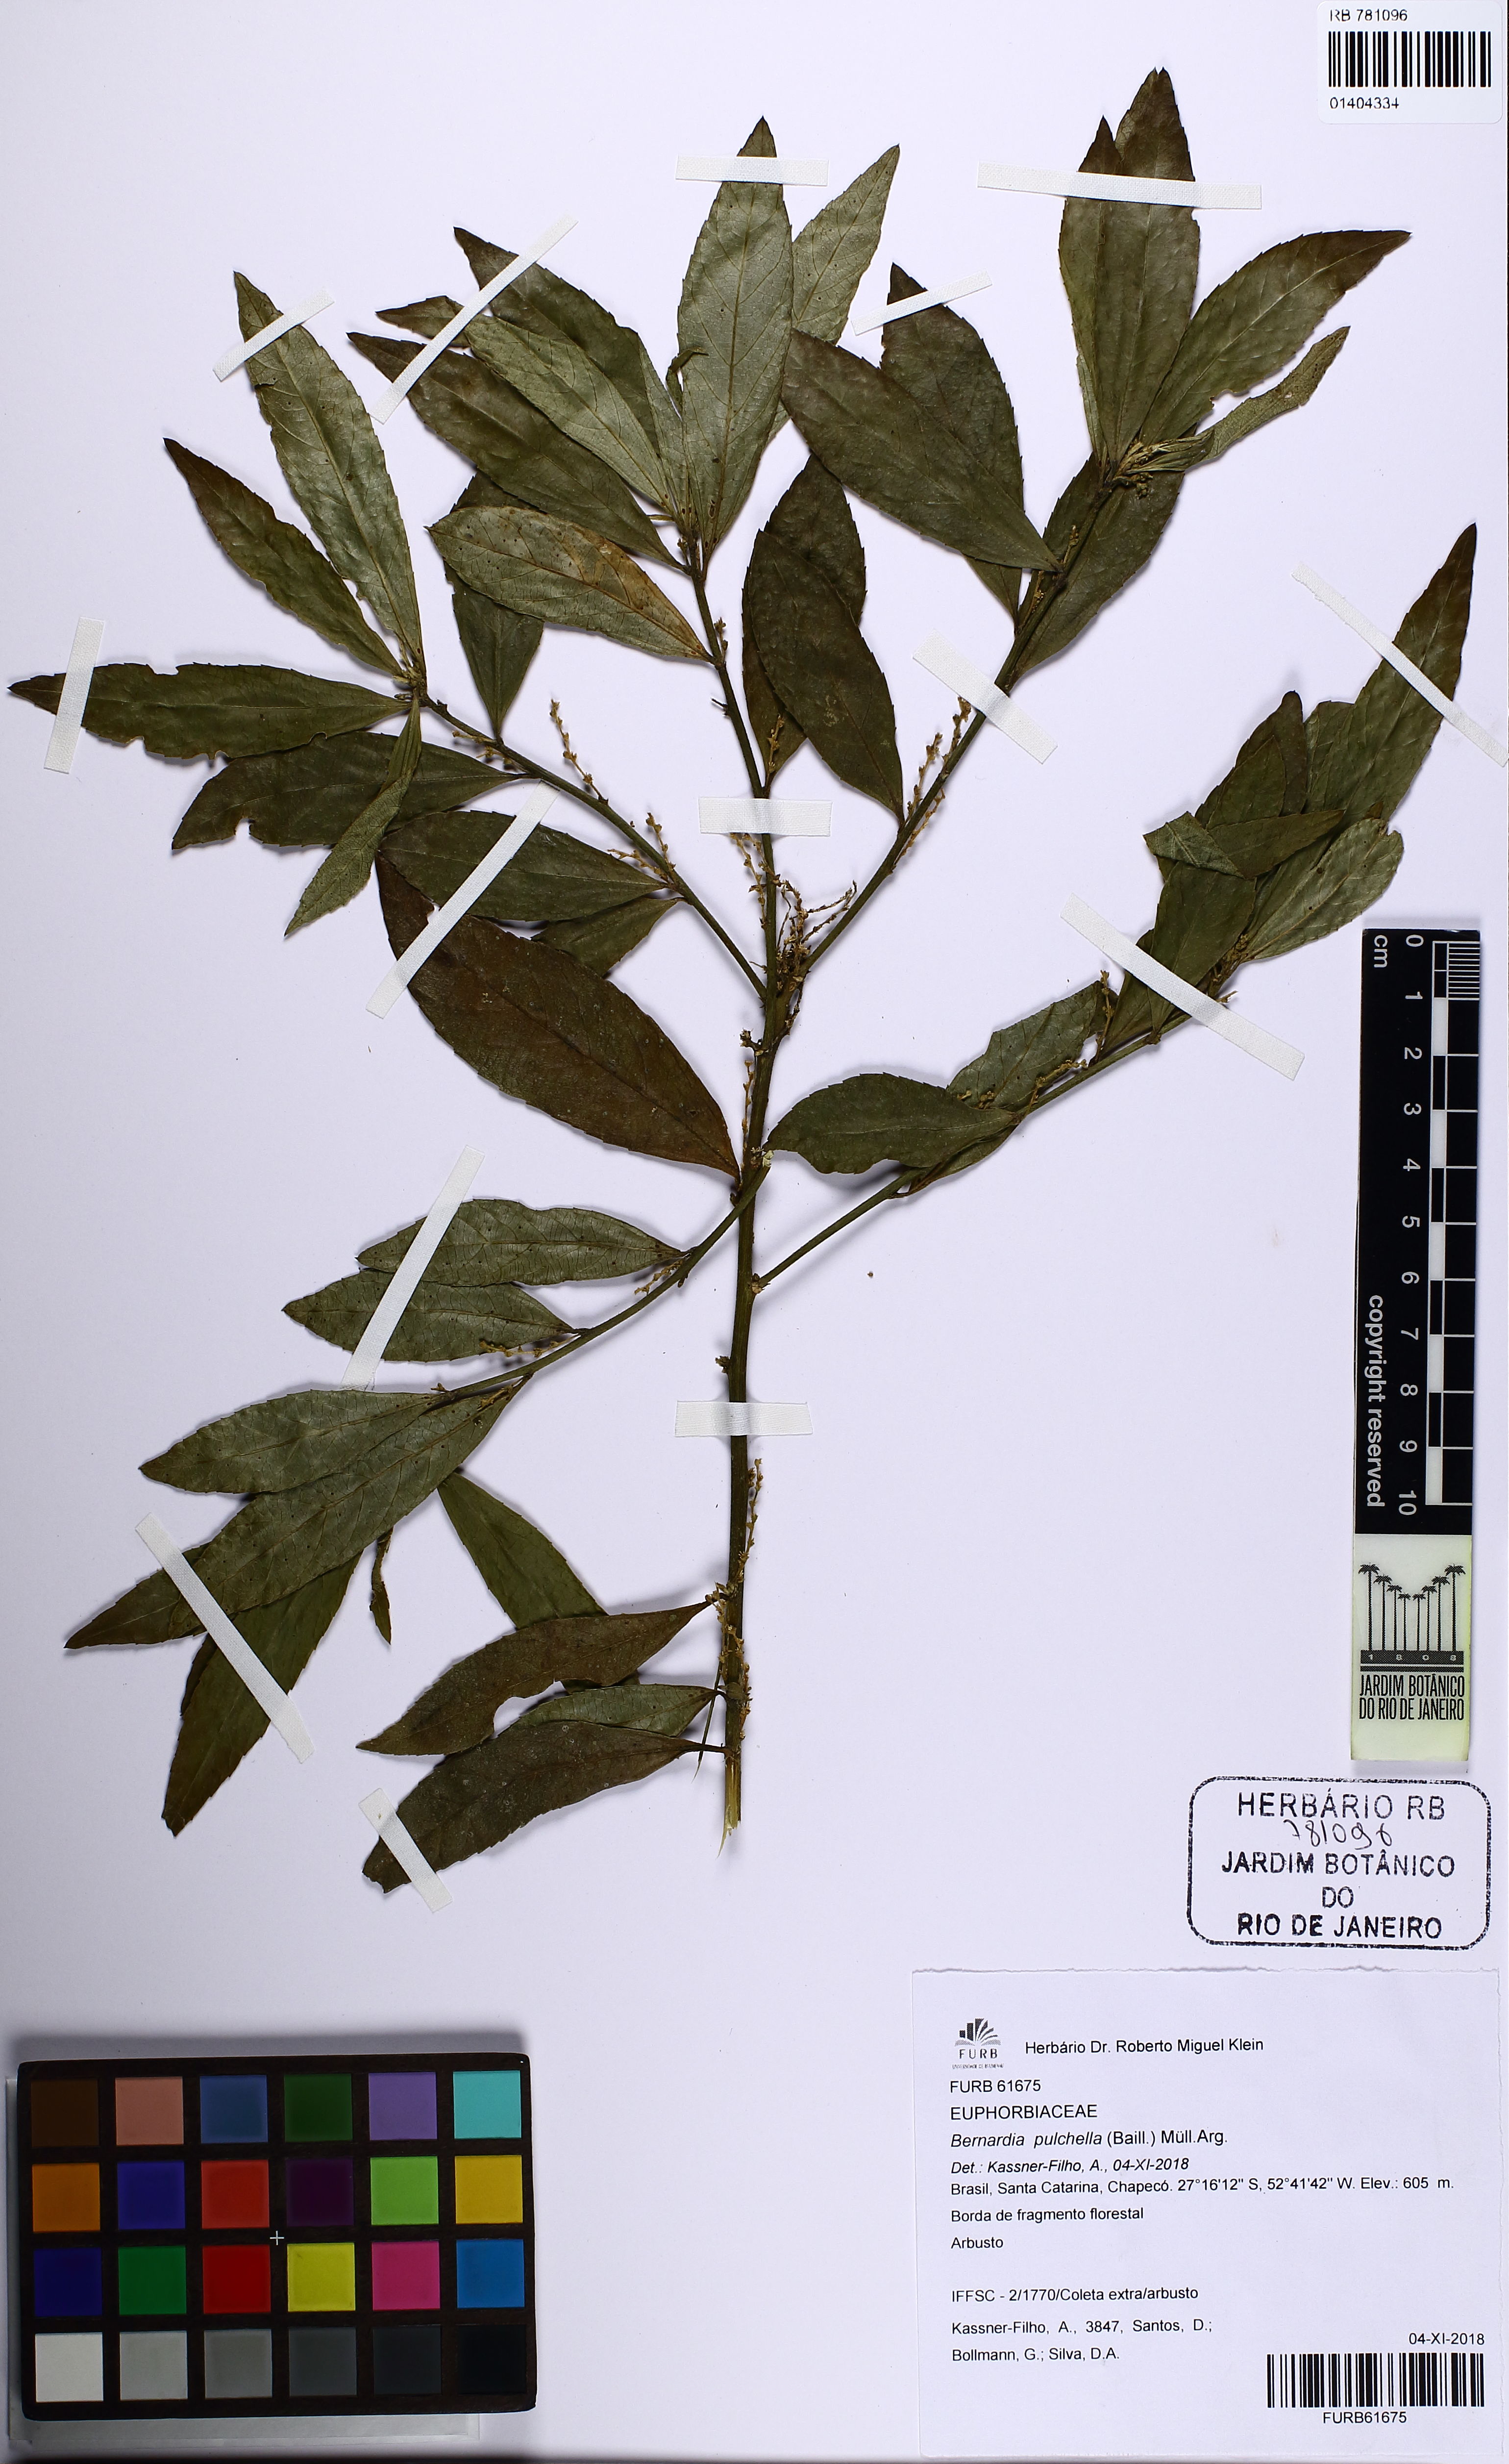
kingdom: Plantae
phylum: Tracheophyta
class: Magnoliopsida
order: Malpighiales
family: Euphorbiaceae
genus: Bernardia
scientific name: Bernardia pulchella
